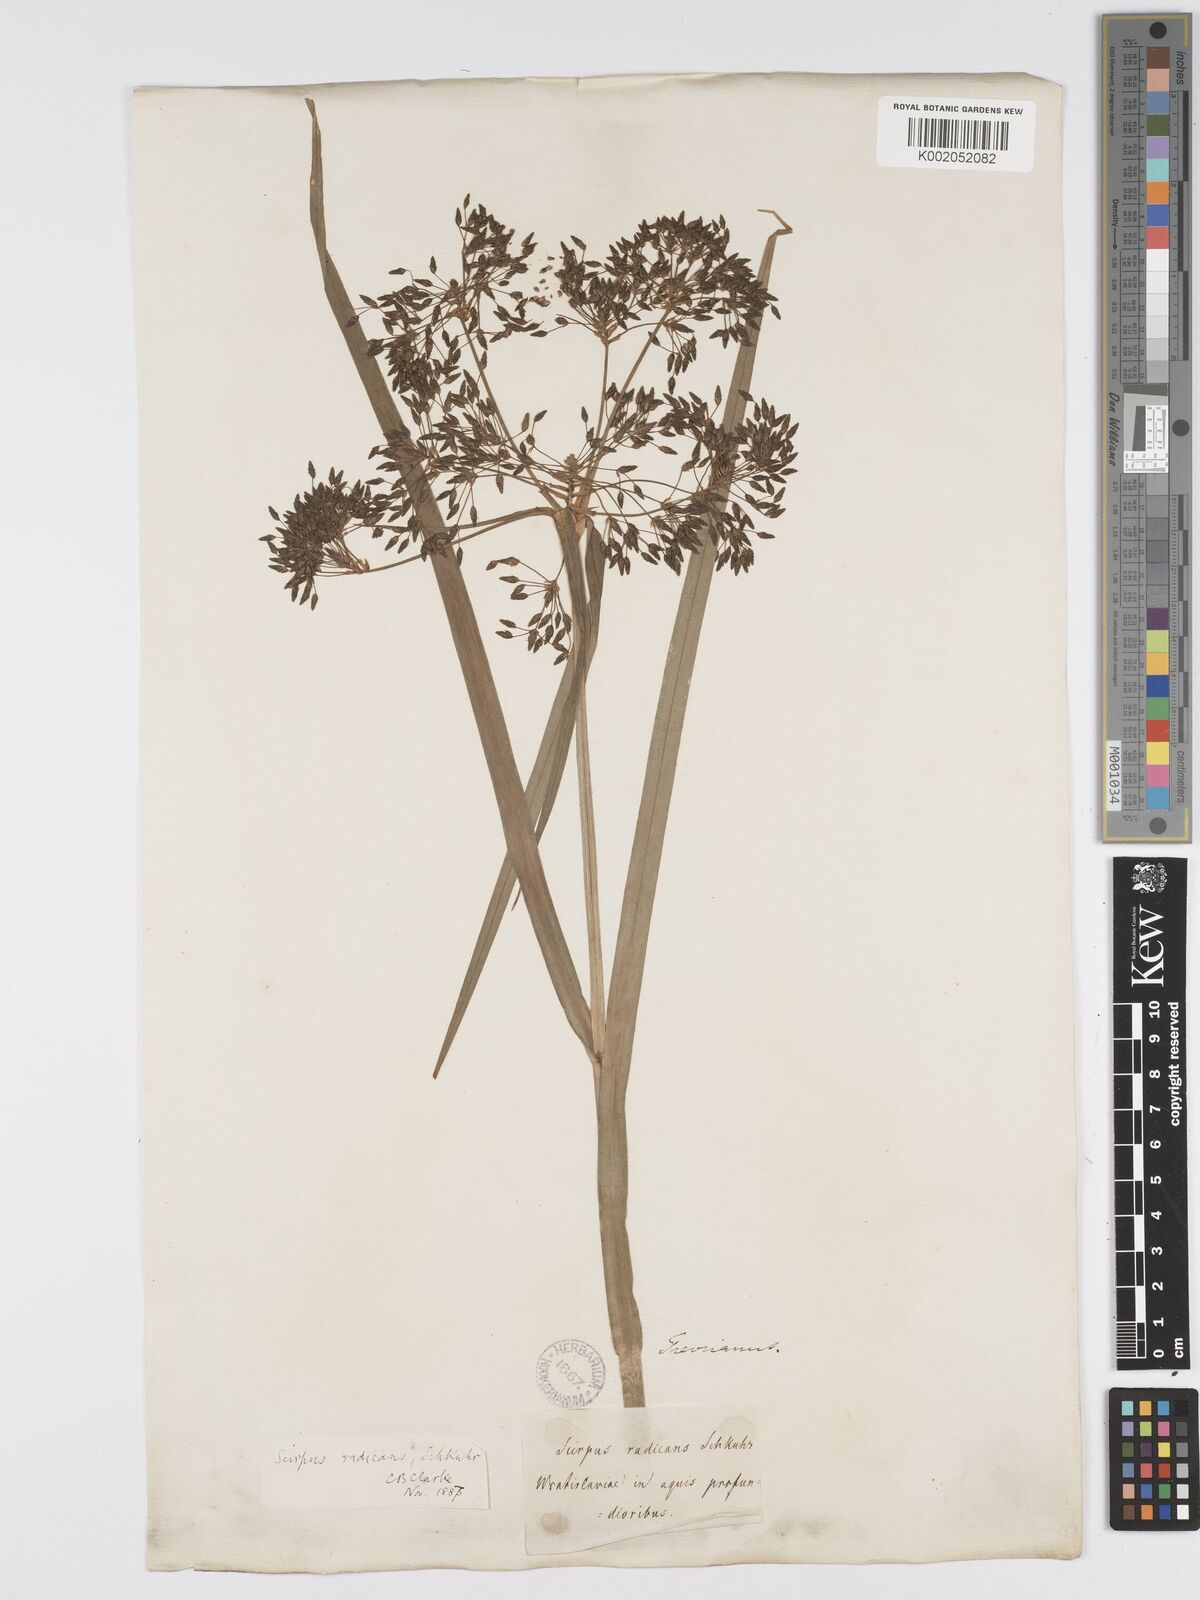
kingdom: Plantae
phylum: Tracheophyta
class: Liliopsida
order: Poales
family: Cyperaceae
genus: Scirpus
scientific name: Scirpus radicans
